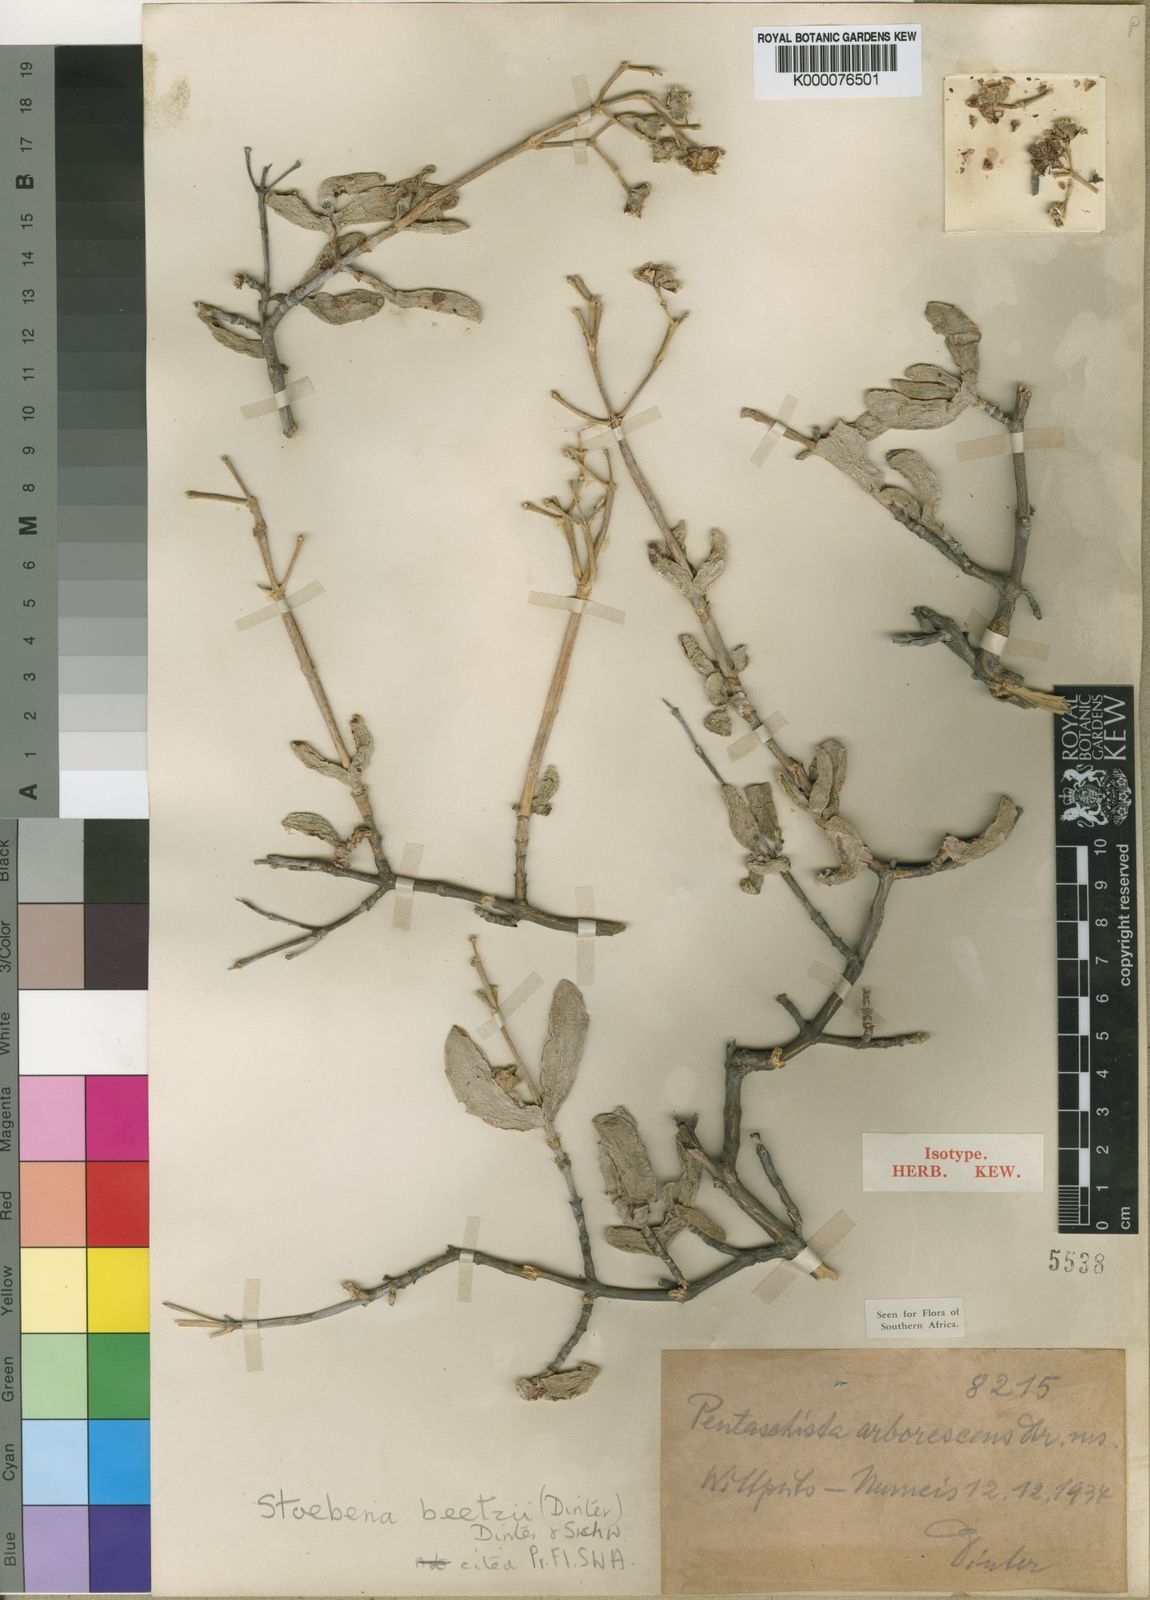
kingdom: Plantae
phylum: Tracheophyta
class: Magnoliopsida
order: Caryophyllales
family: Aizoaceae
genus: Stoeberia
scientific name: Stoeberia beetzii
